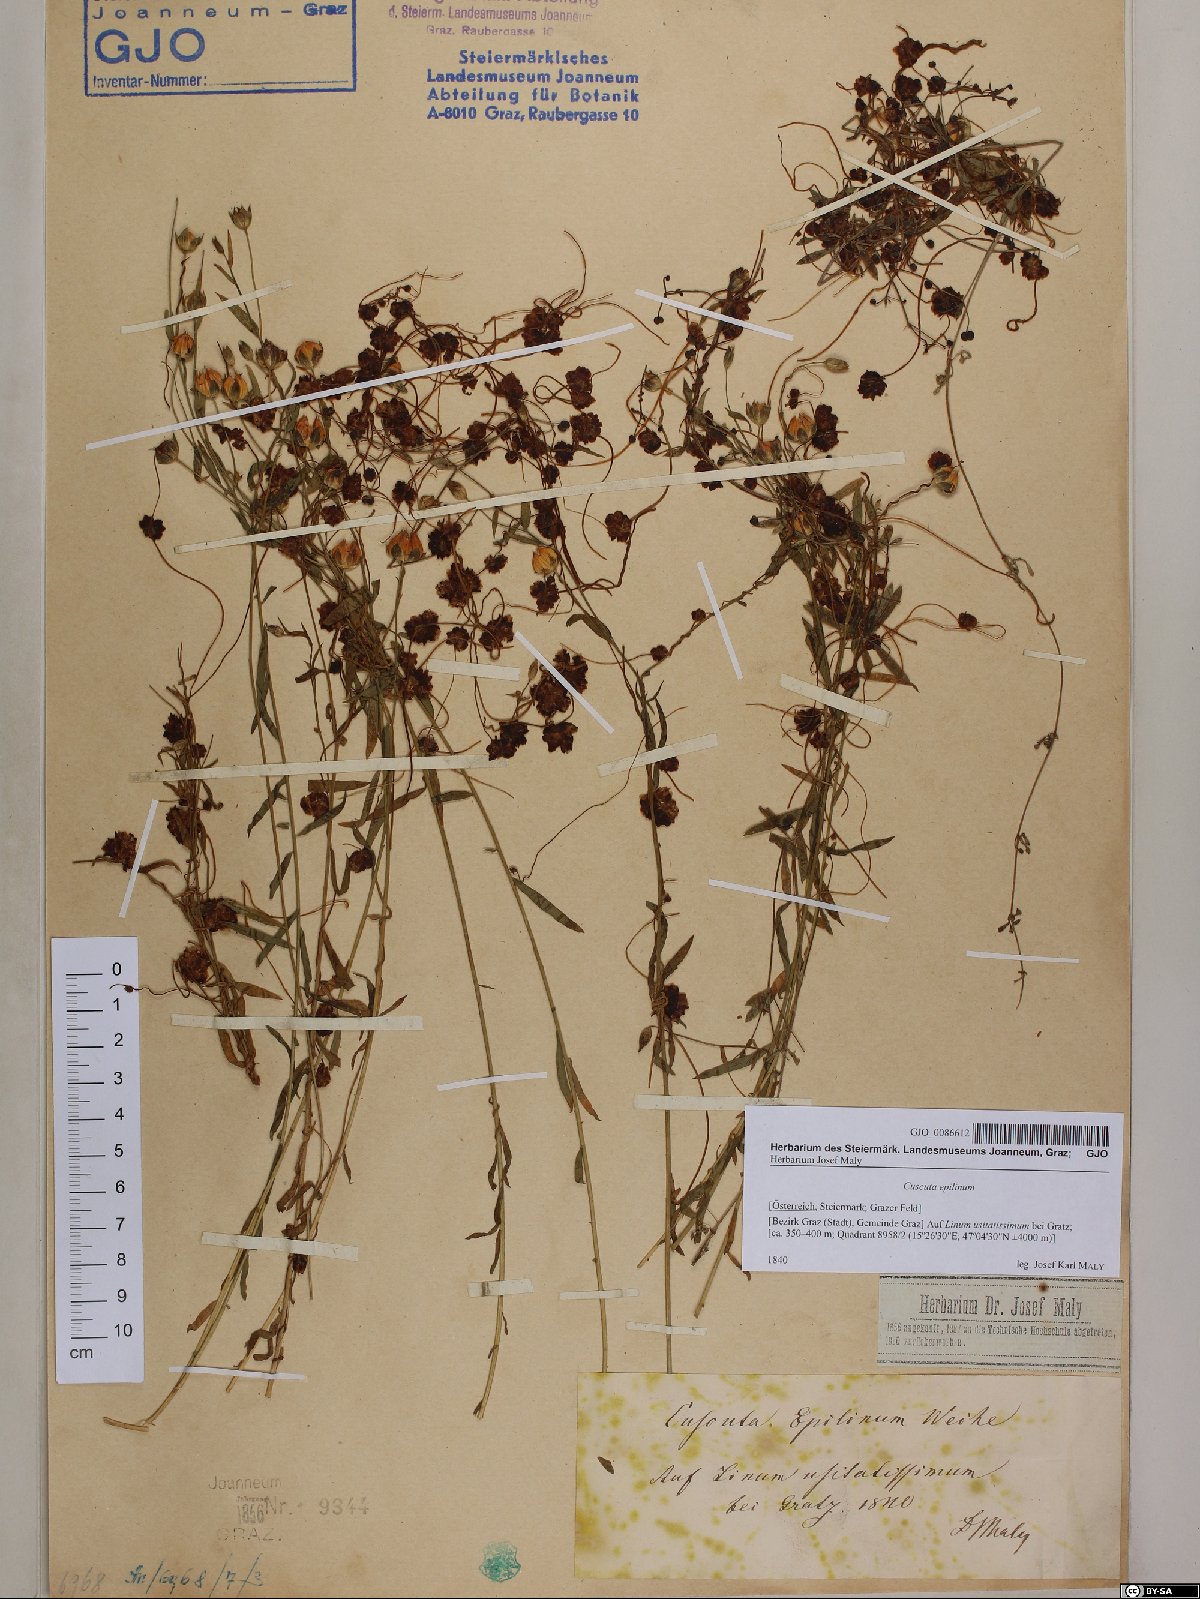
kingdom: Plantae
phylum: Tracheophyta
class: Magnoliopsida
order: Solanales
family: Convolvulaceae
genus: Cuscuta
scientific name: Cuscuta epilinum
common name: Flax dodder
